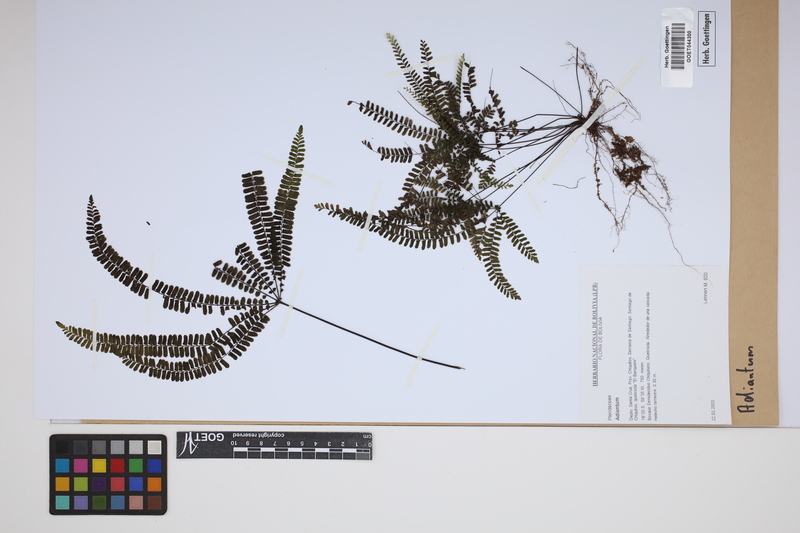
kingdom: Plantae
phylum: Tracheophyta
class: Polypodiopsida
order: Polypodiales
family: Pteridaceae
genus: Adiantum
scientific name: Adiantum
